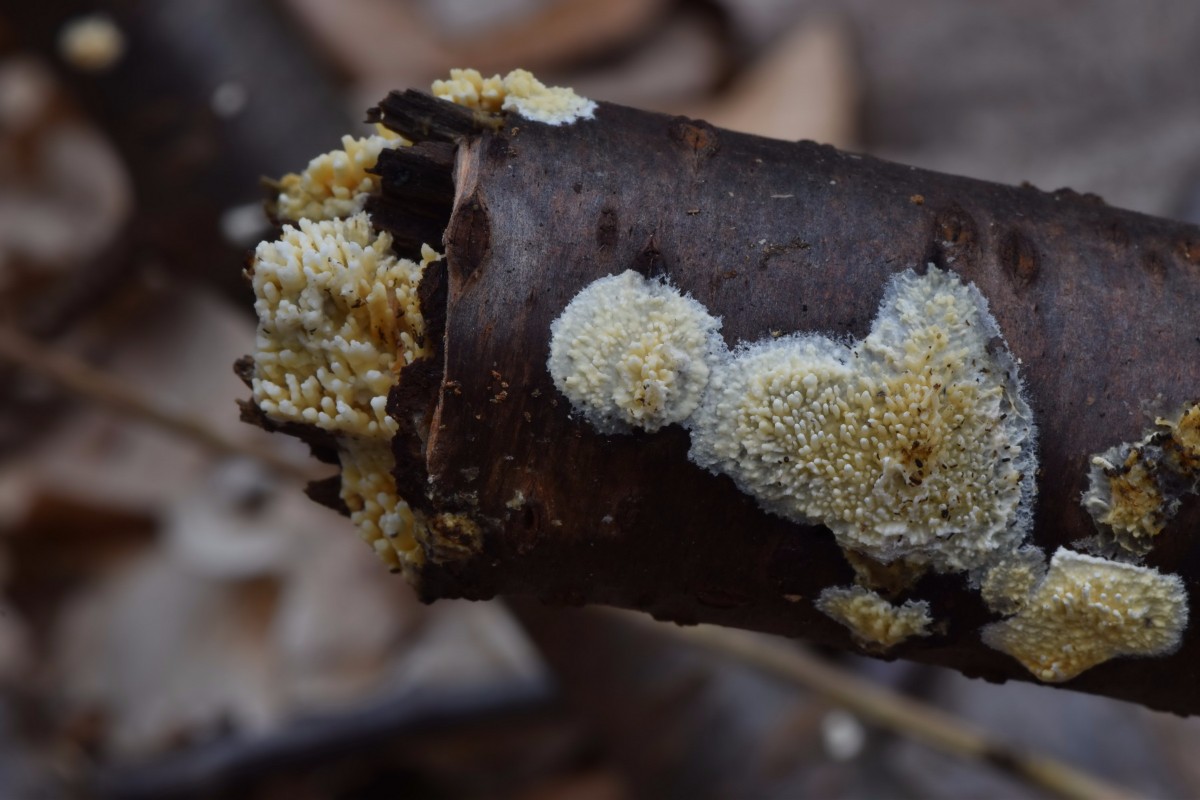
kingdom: Fungi
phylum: Basidiomycota
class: Agaricomycetes
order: Hymenochaetales
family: Schizoporaceae
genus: Xylodon
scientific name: Xylodon radula
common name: grovtandet kalkskind
